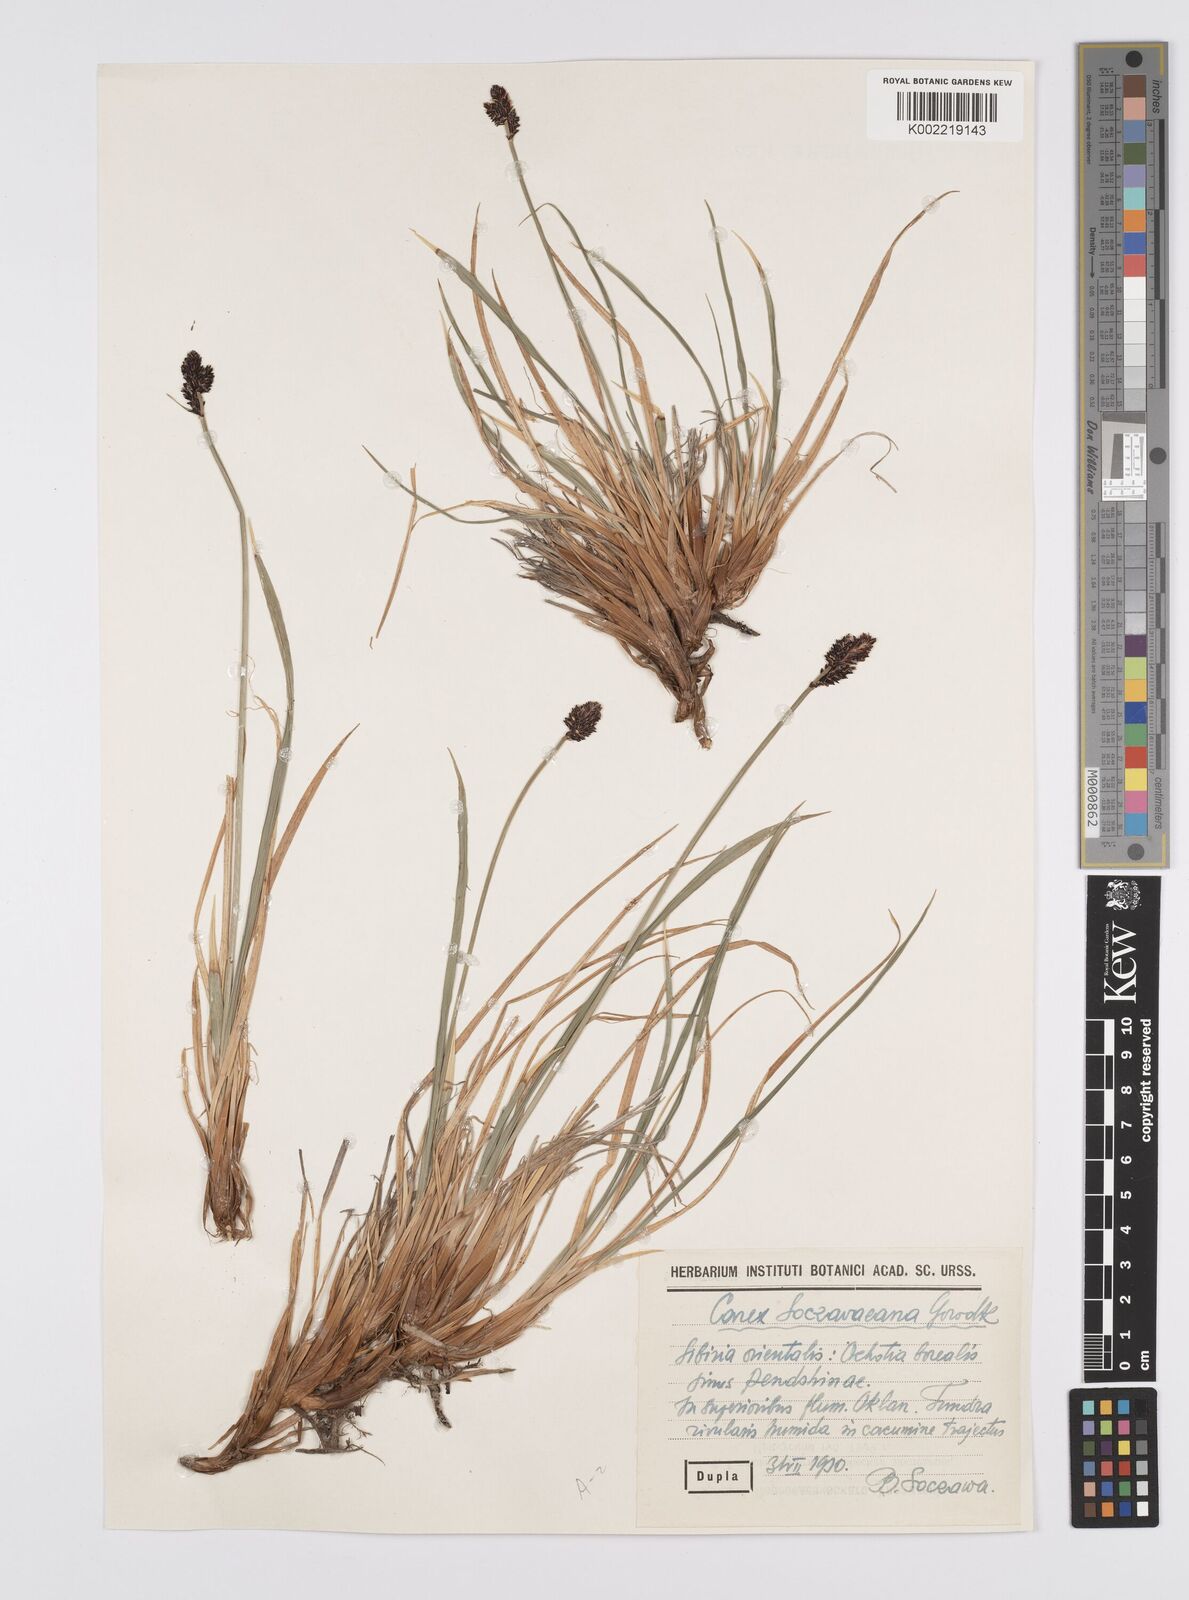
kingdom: Plantae
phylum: Tracheophyta
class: Liliopsida
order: Poales
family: Cyperaceae
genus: Carex
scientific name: Carex soczavaeana
